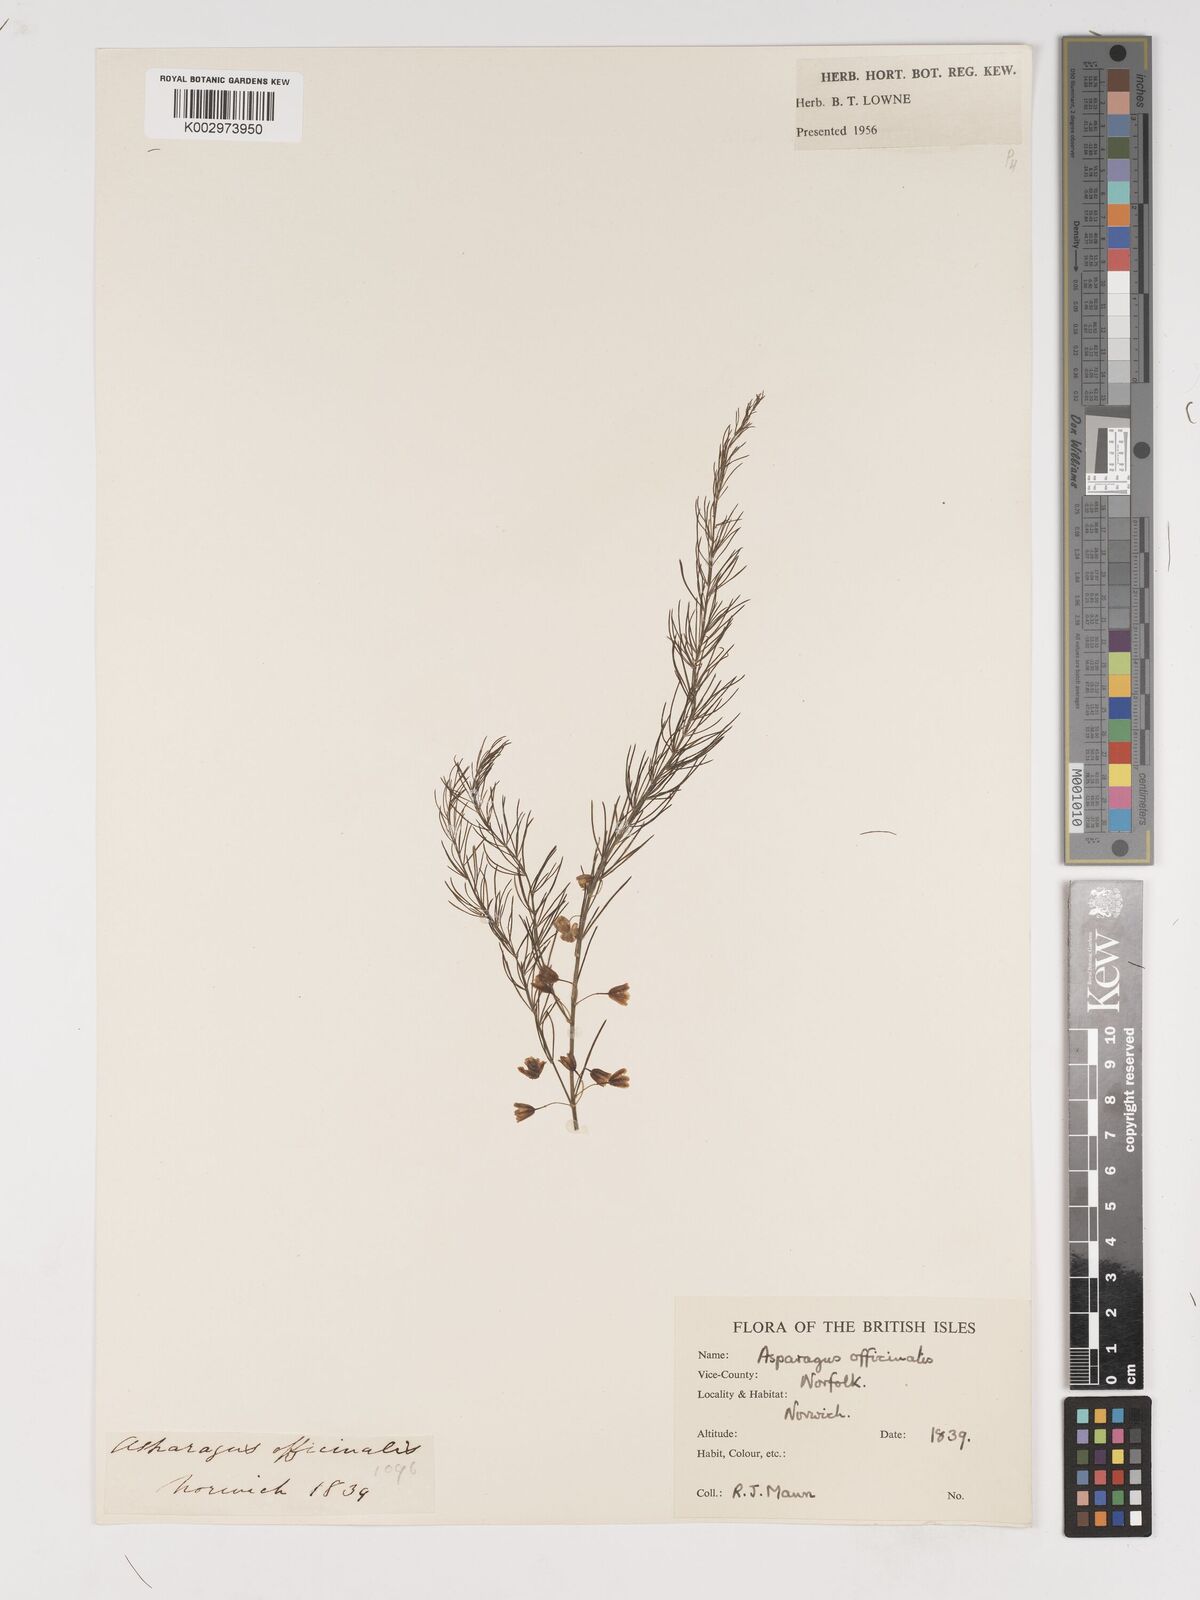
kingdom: Plantae
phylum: Tracheophyta
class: Liliopsida
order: Asparagales
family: Asparagaceae
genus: Asparagus
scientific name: Asparagus officinalis
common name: Garden asparagus
